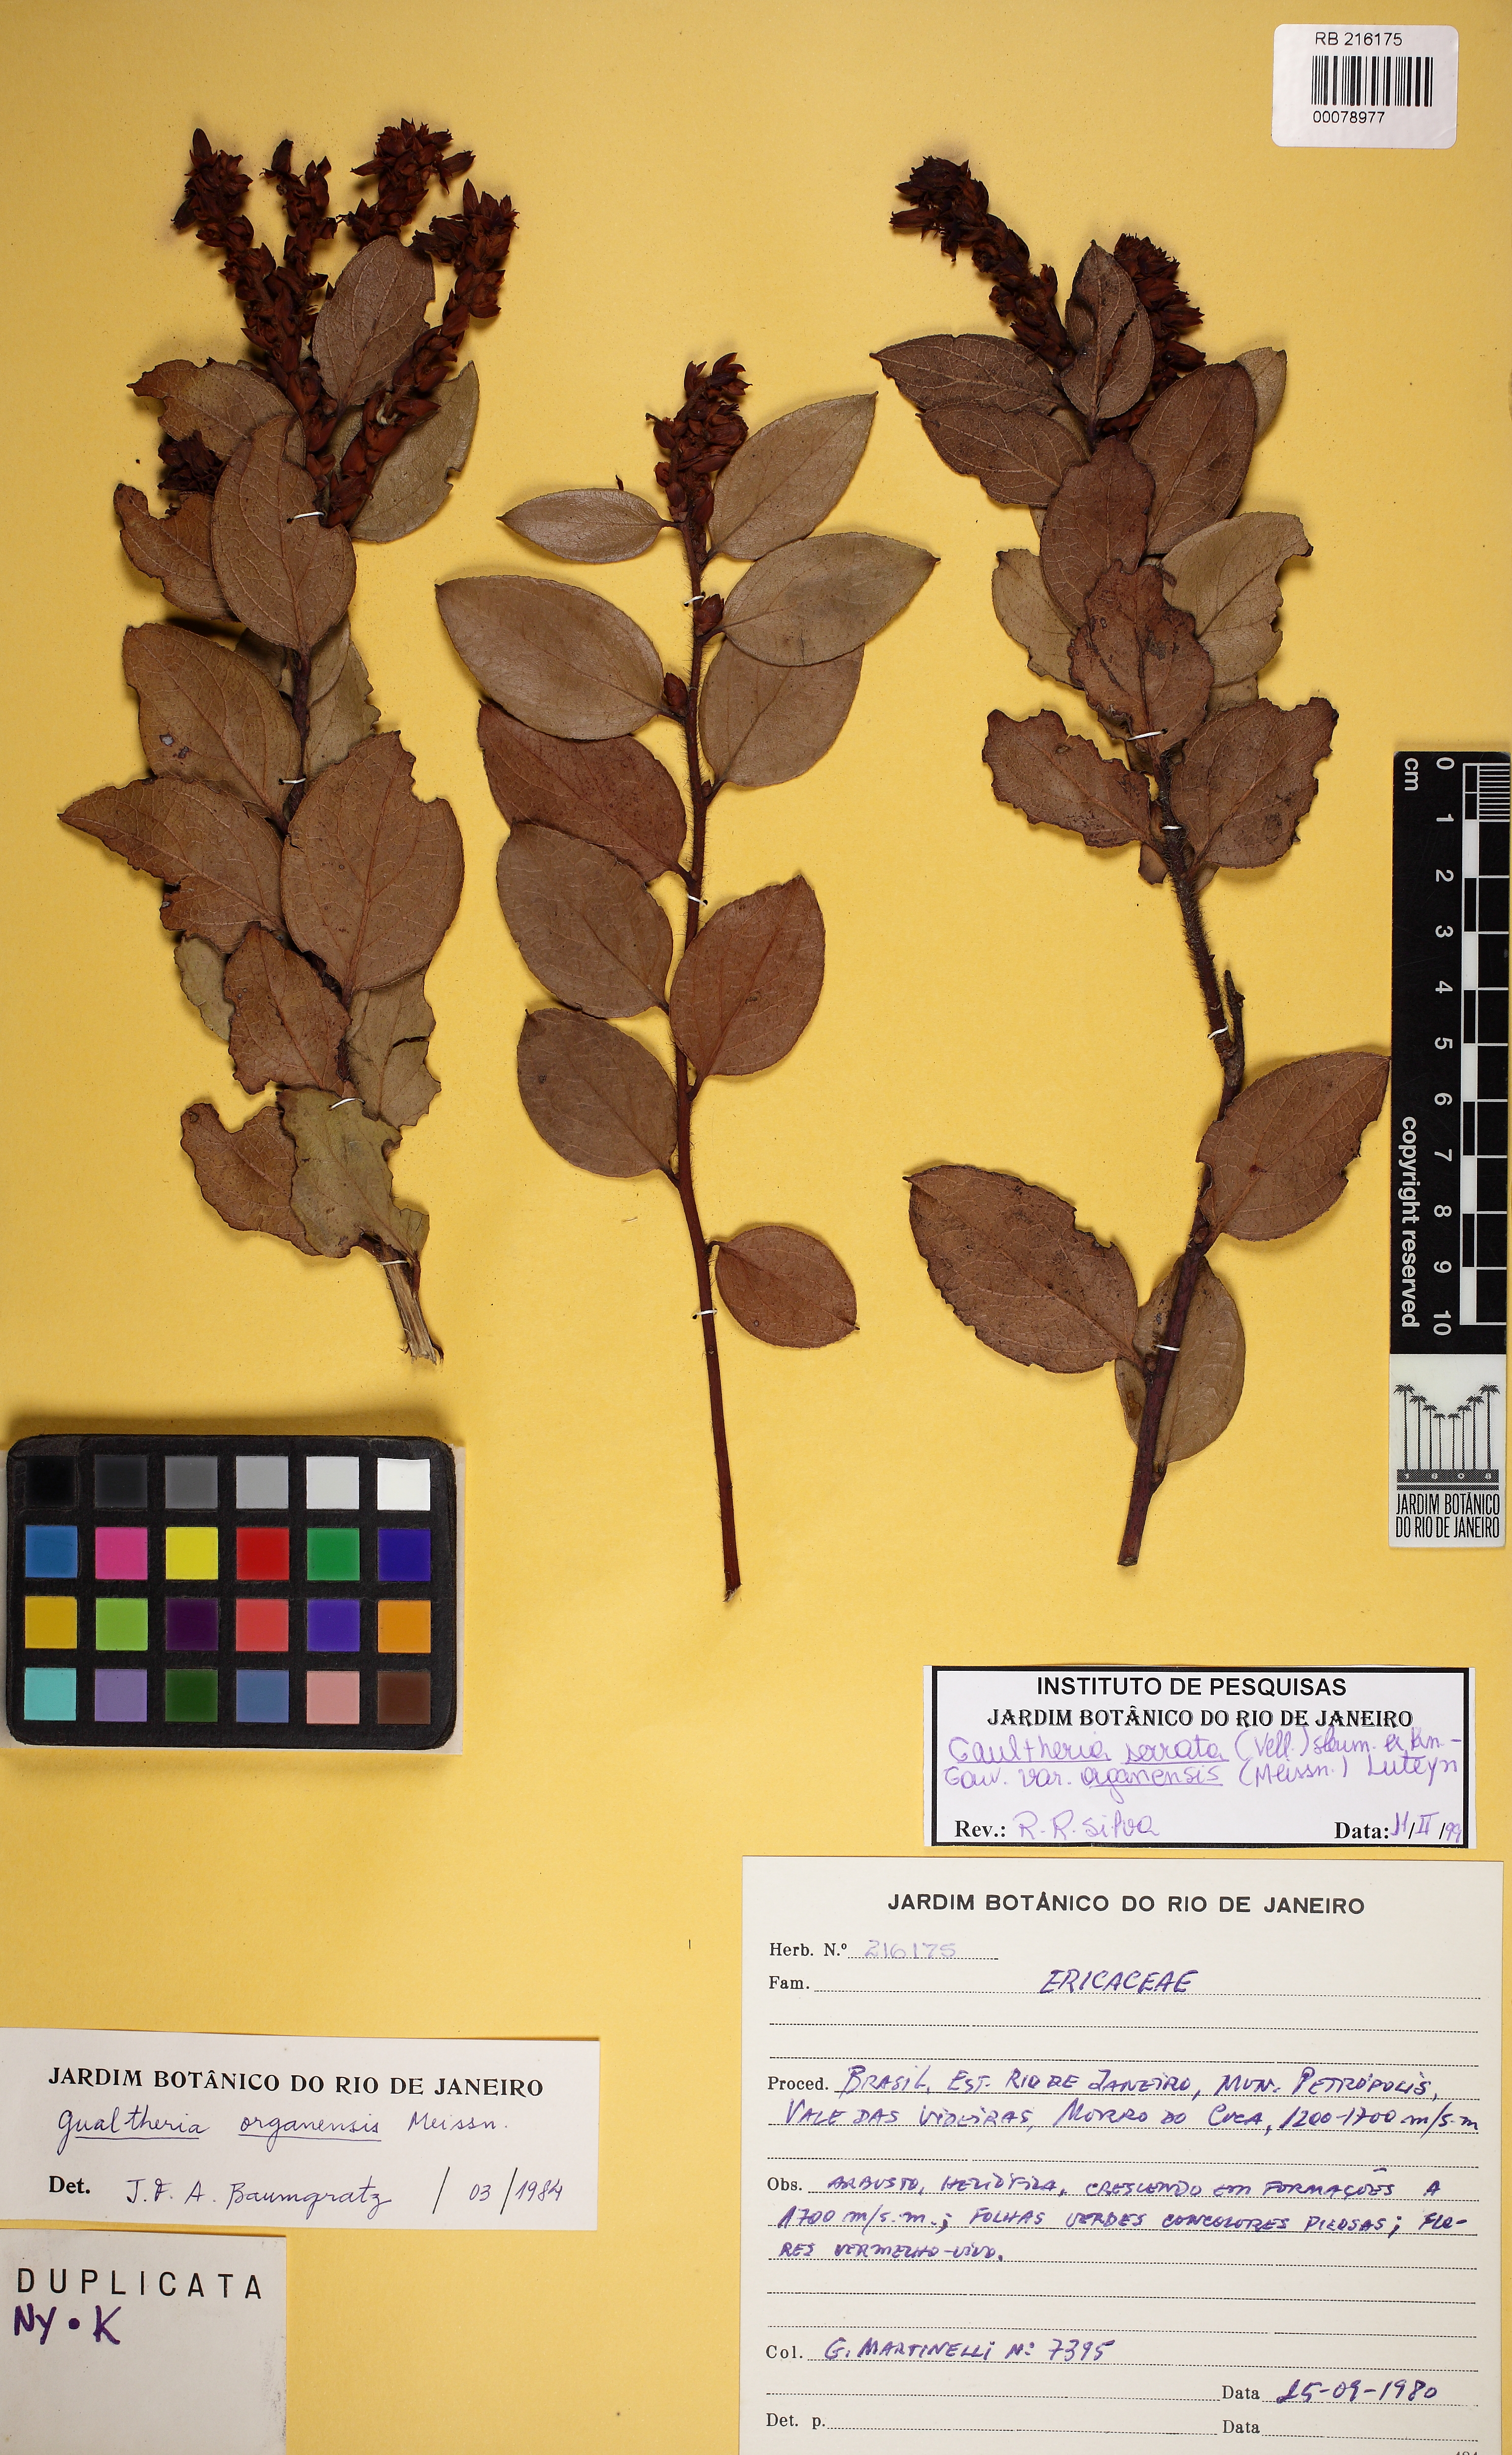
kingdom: Plantae
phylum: Tracheophyta
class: Magnoliopsida
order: Ericales
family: Ericaceae
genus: Gaultheria
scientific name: Gaultheria serrata
